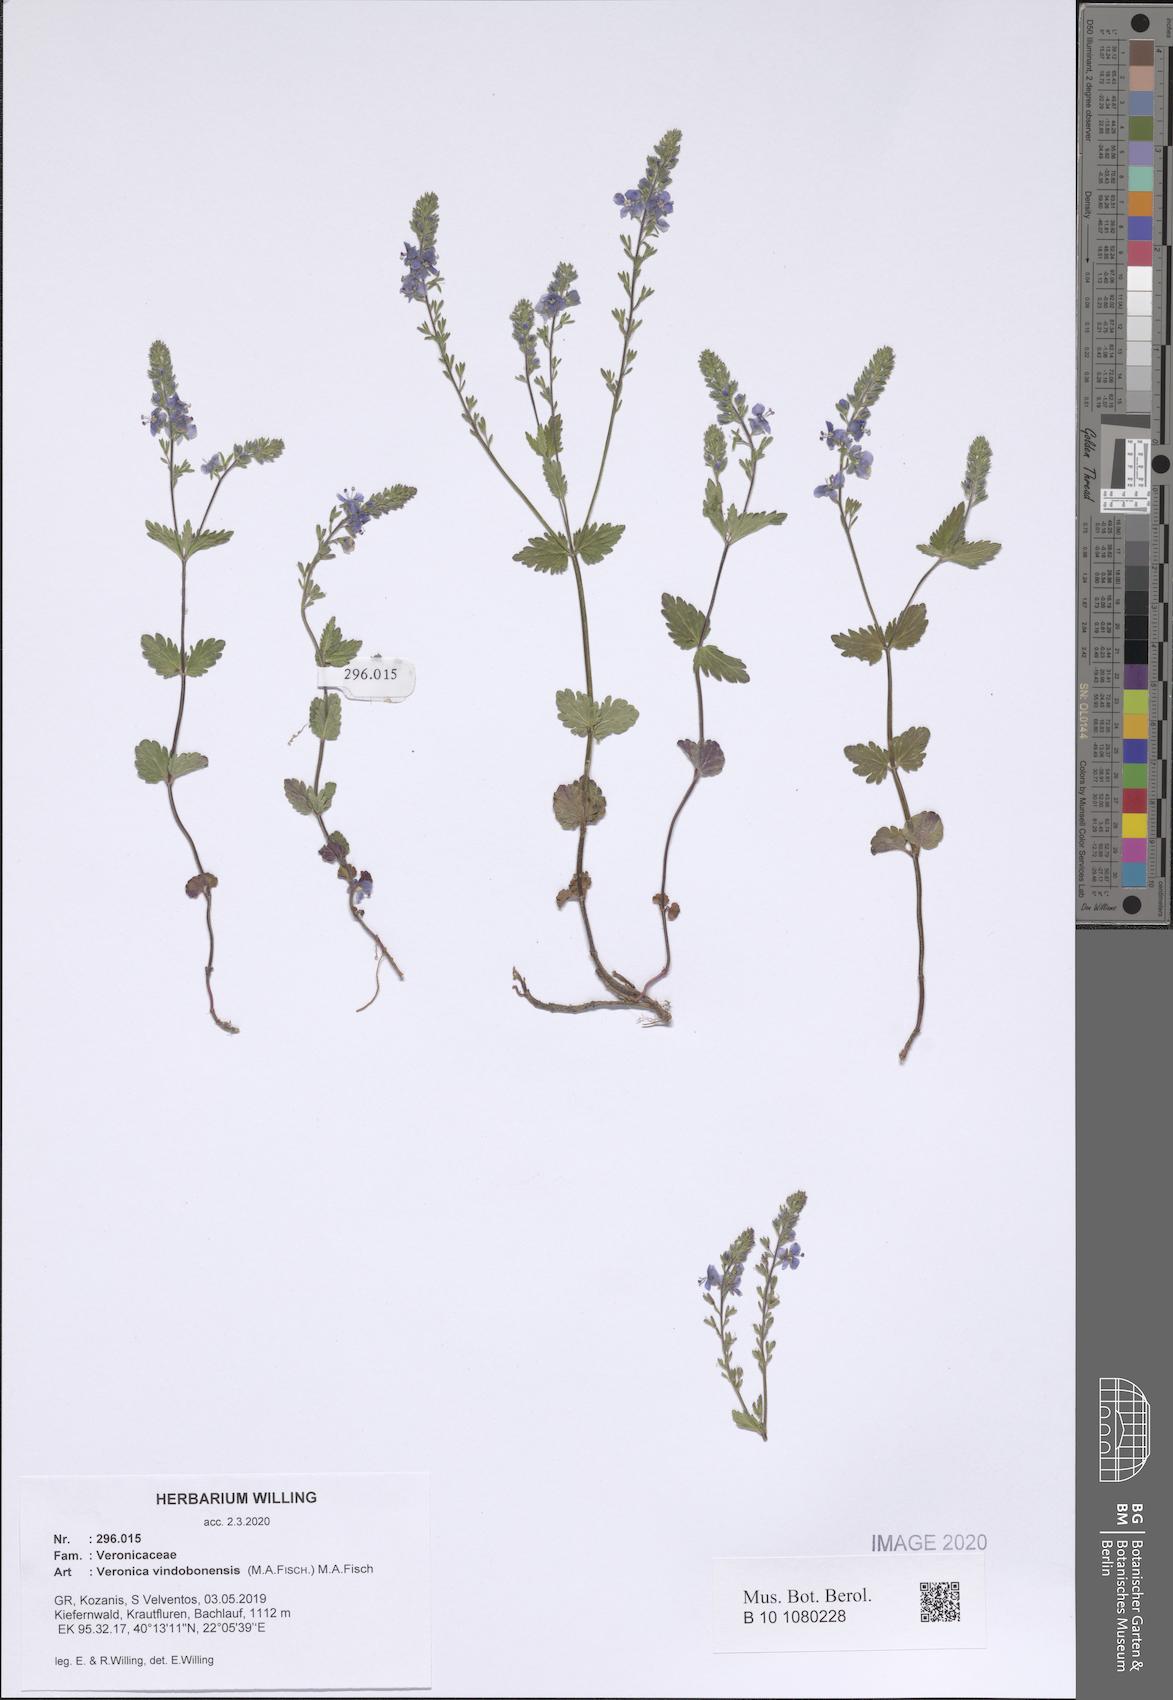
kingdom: Plantae
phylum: Tracheophyta
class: Magnoliopsida
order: Lamiales
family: Plantaginaceae
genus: Veronica
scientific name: Veronica vindobonensis
